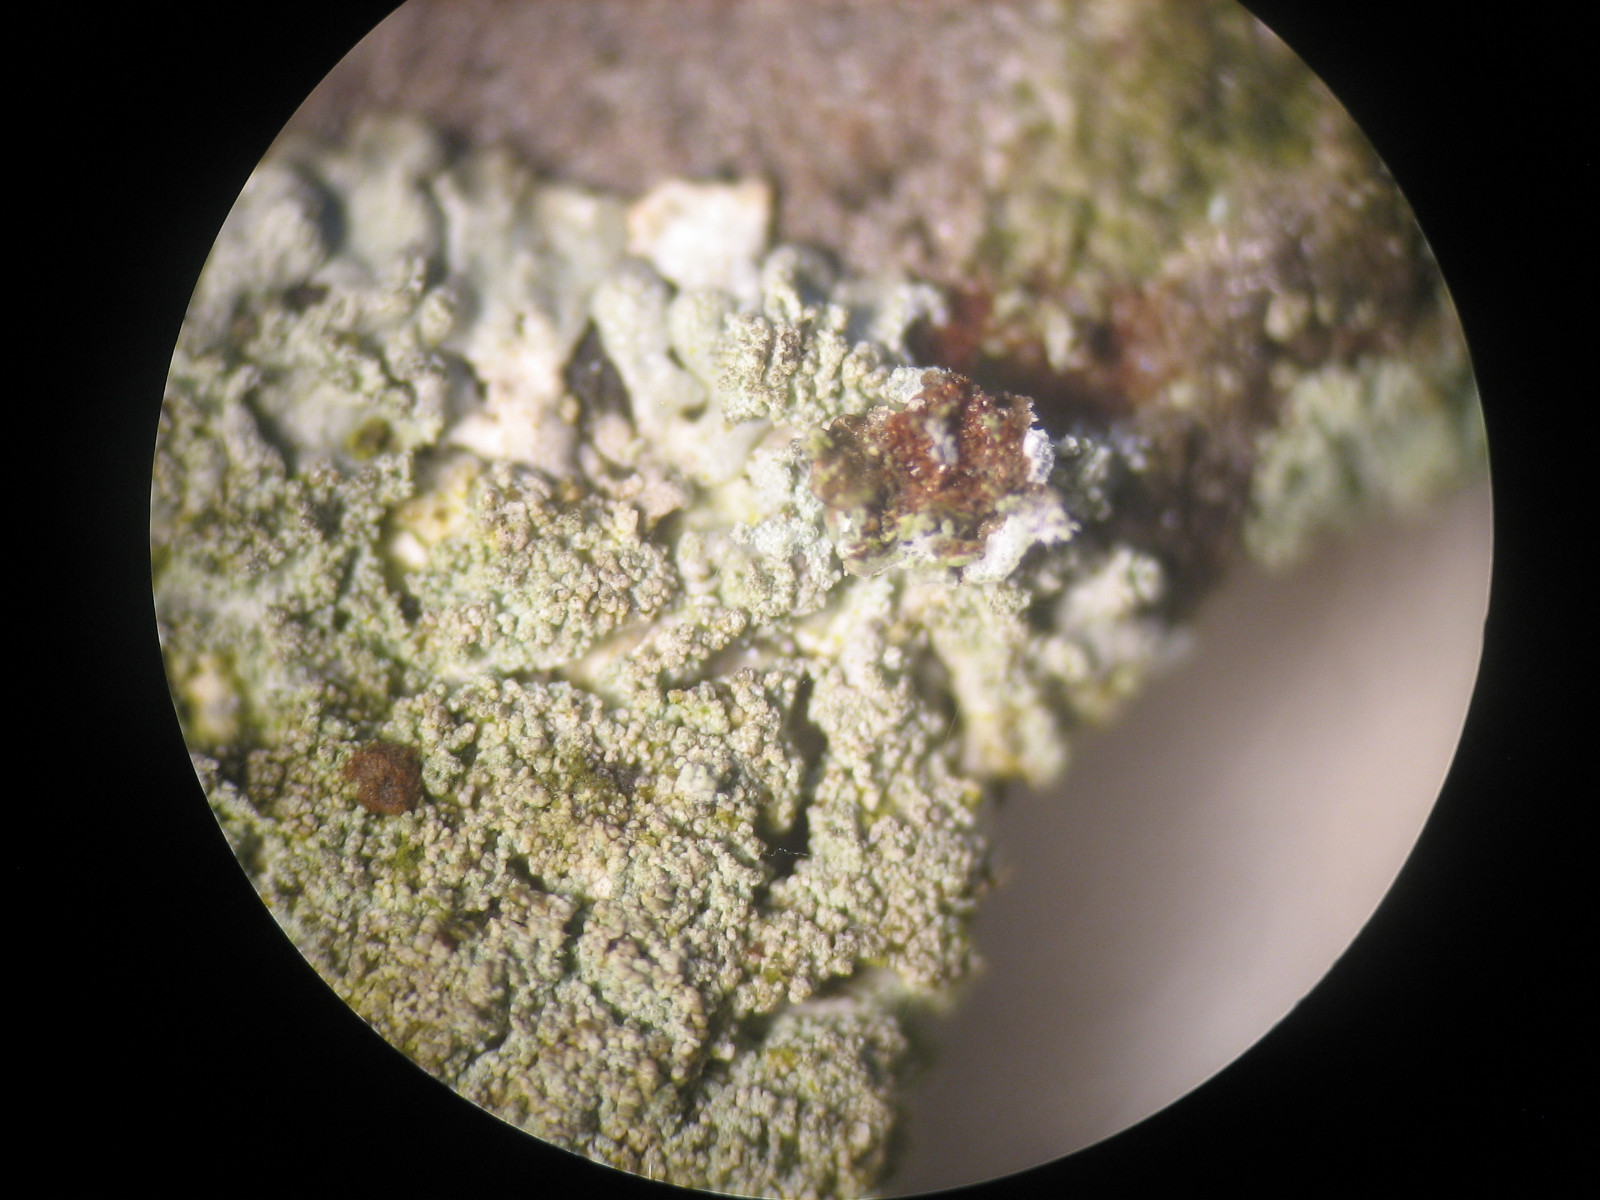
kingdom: Fungi
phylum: Ascomycota
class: Lecanoromycetes
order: Lecanorales
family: Parmeliaceae
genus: Parmeliopsis
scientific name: Parmeliopsis hyperopta
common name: grå stolpelav
